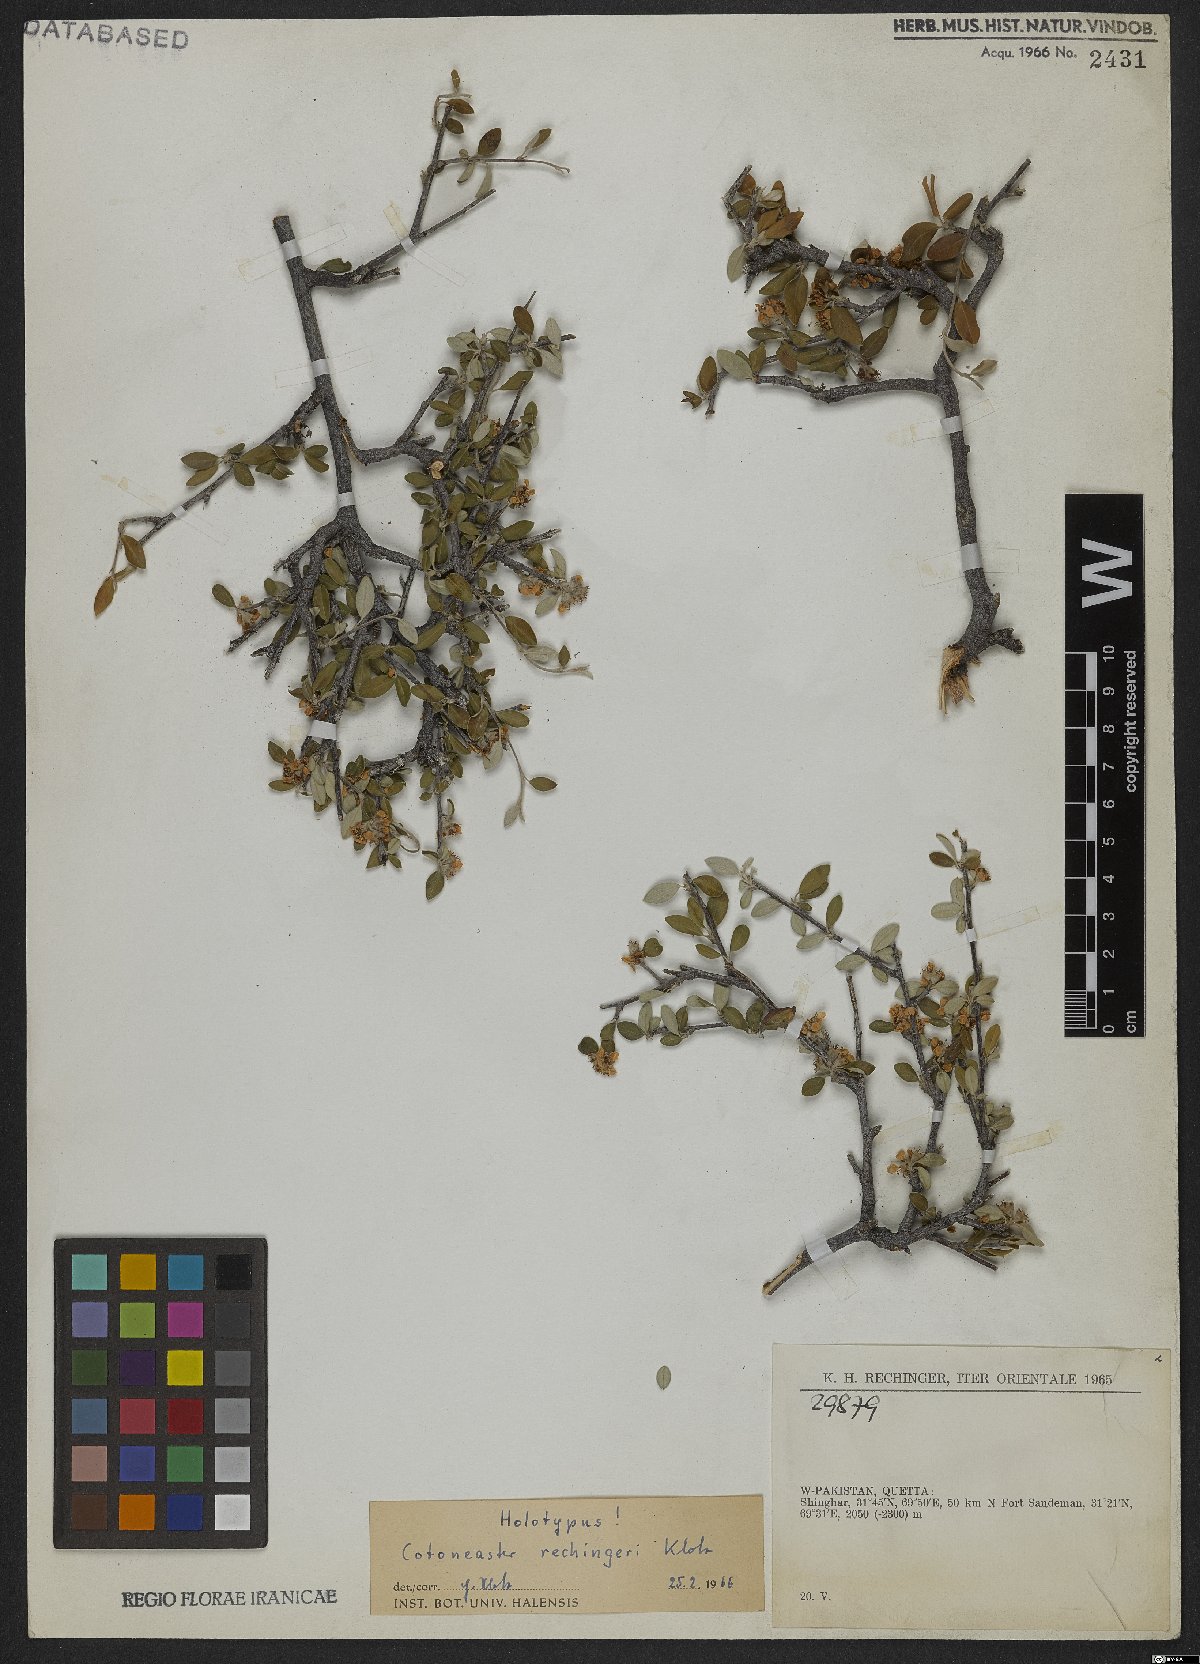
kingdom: Plantae
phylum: Tracheophyta
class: Magnoliopsida
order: Rosales
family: Rosaceae
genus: Cotoneaster
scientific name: Cotoneaster persicus
